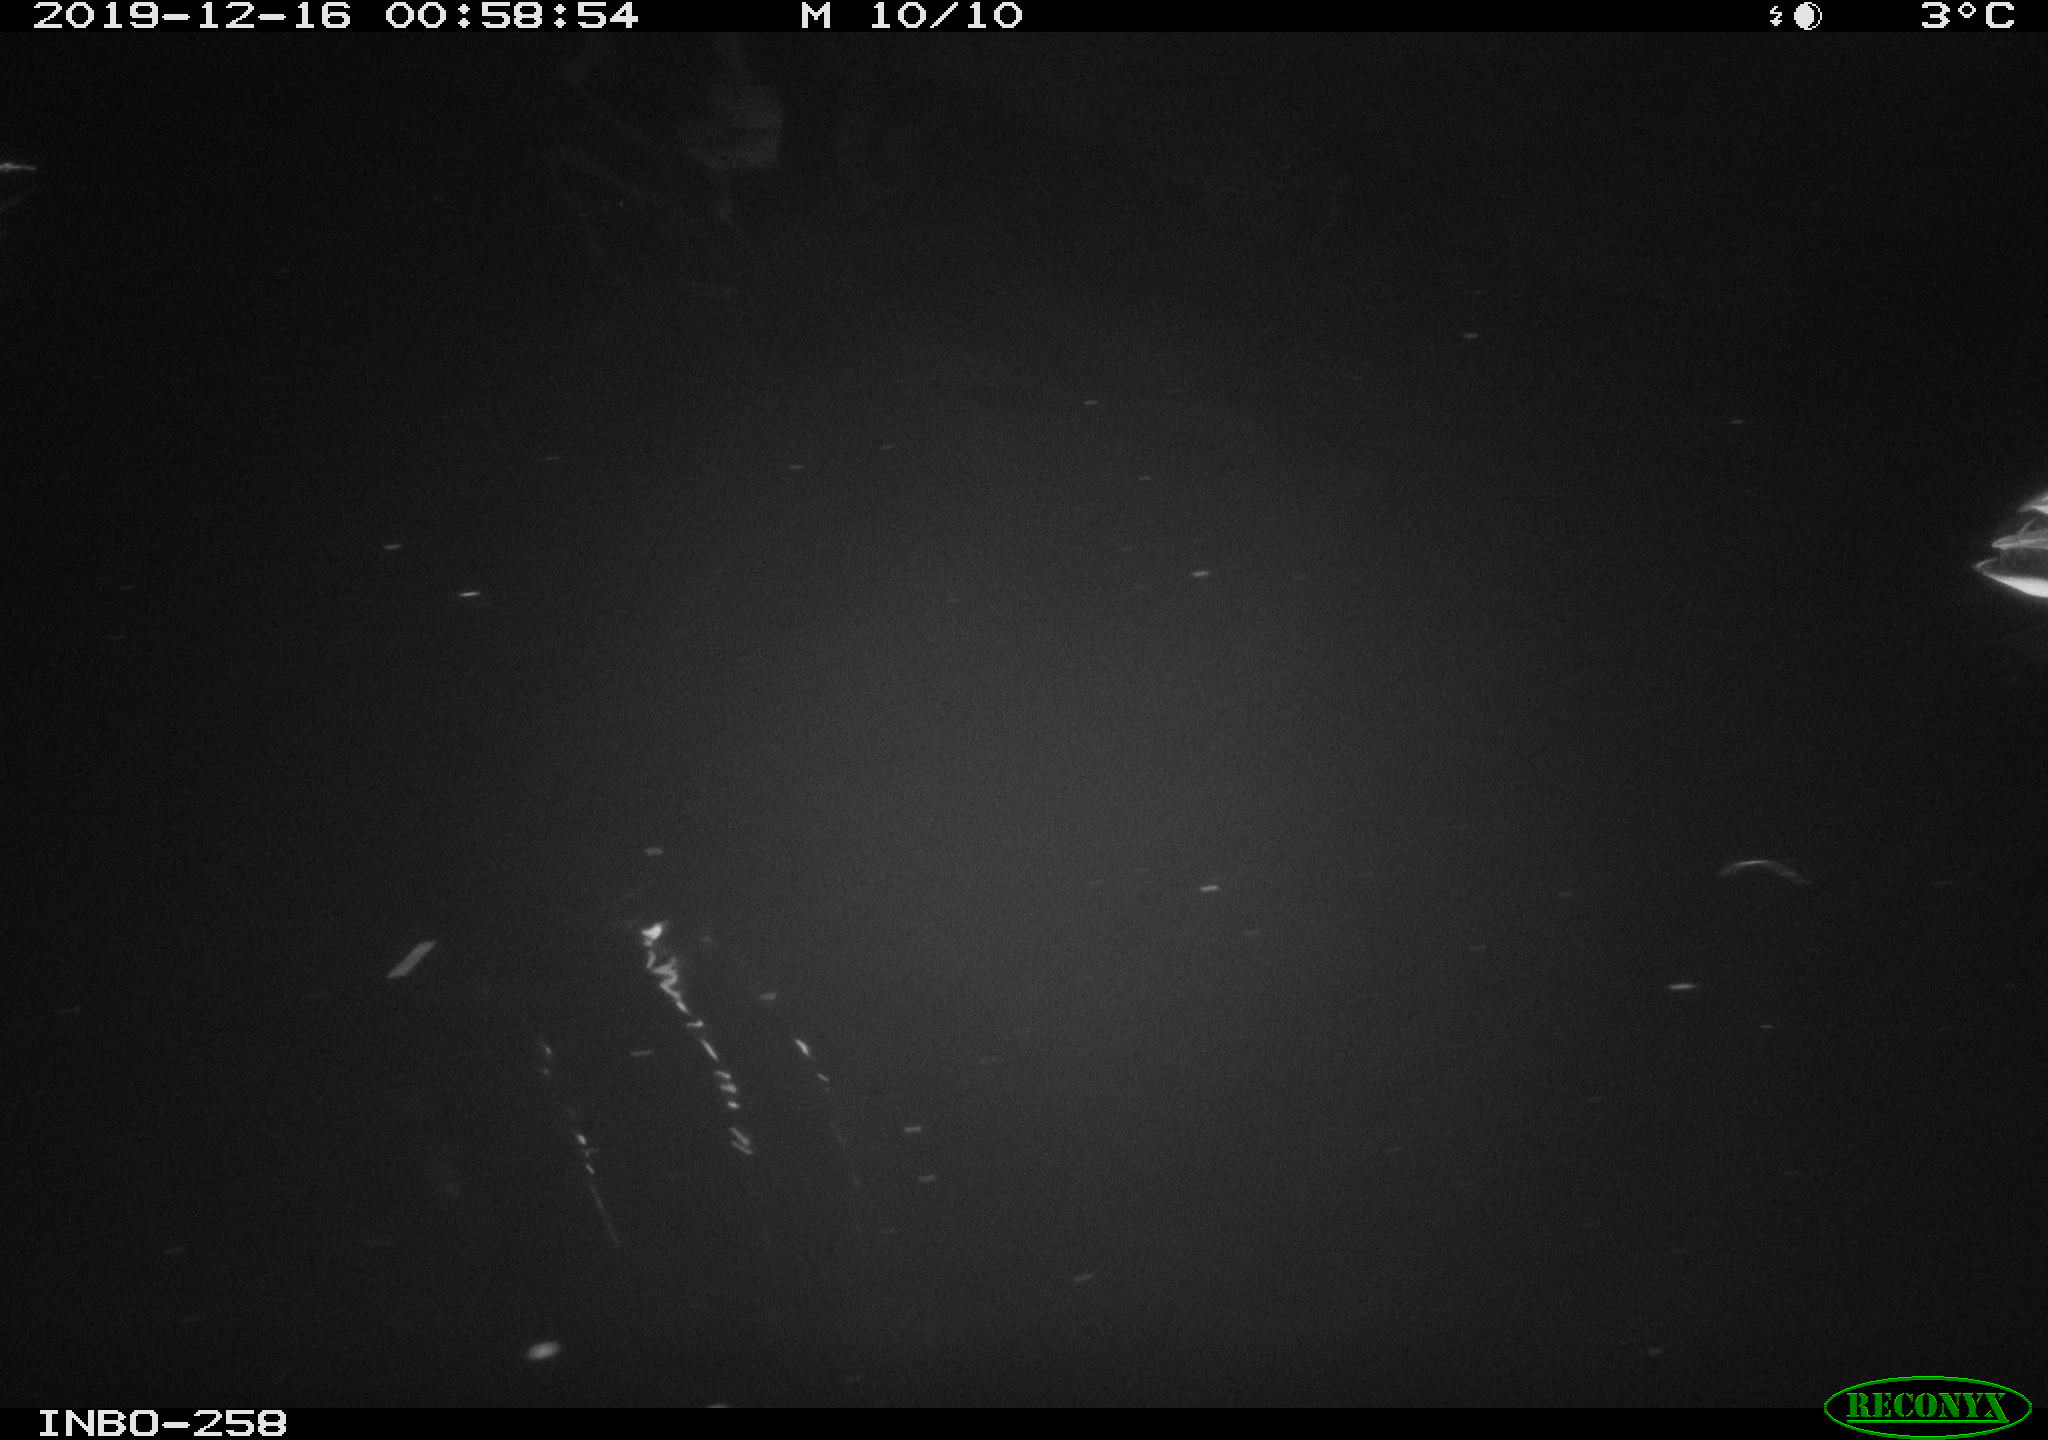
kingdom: Animalia
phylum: Chordata
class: Aves
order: Anseriformes
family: Anatidae
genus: Anas
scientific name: Anas platyrhynchos
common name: Mallard
